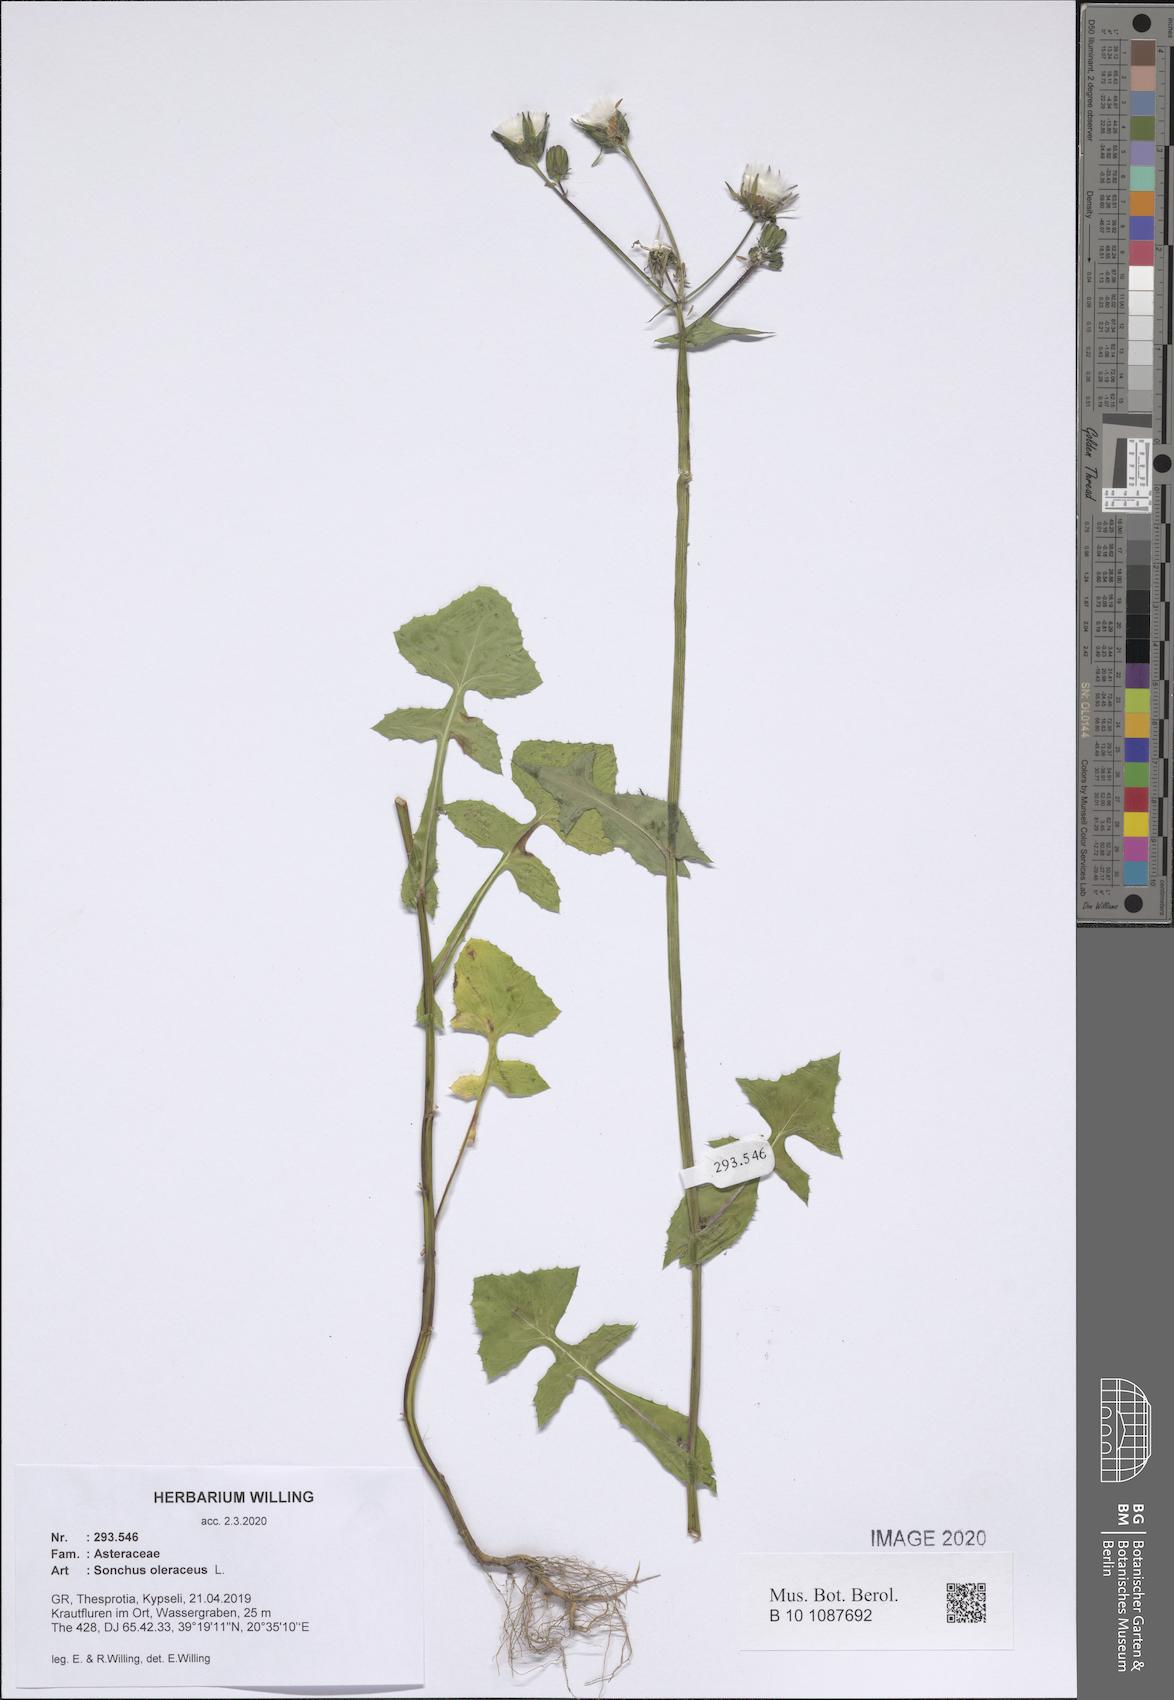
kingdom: Plantae
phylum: Tracheophyta
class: Magnoliopsida
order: Asterales
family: Asteraceae
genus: Sonchus
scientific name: Sonchus oleraceus
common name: Common sowthistle
